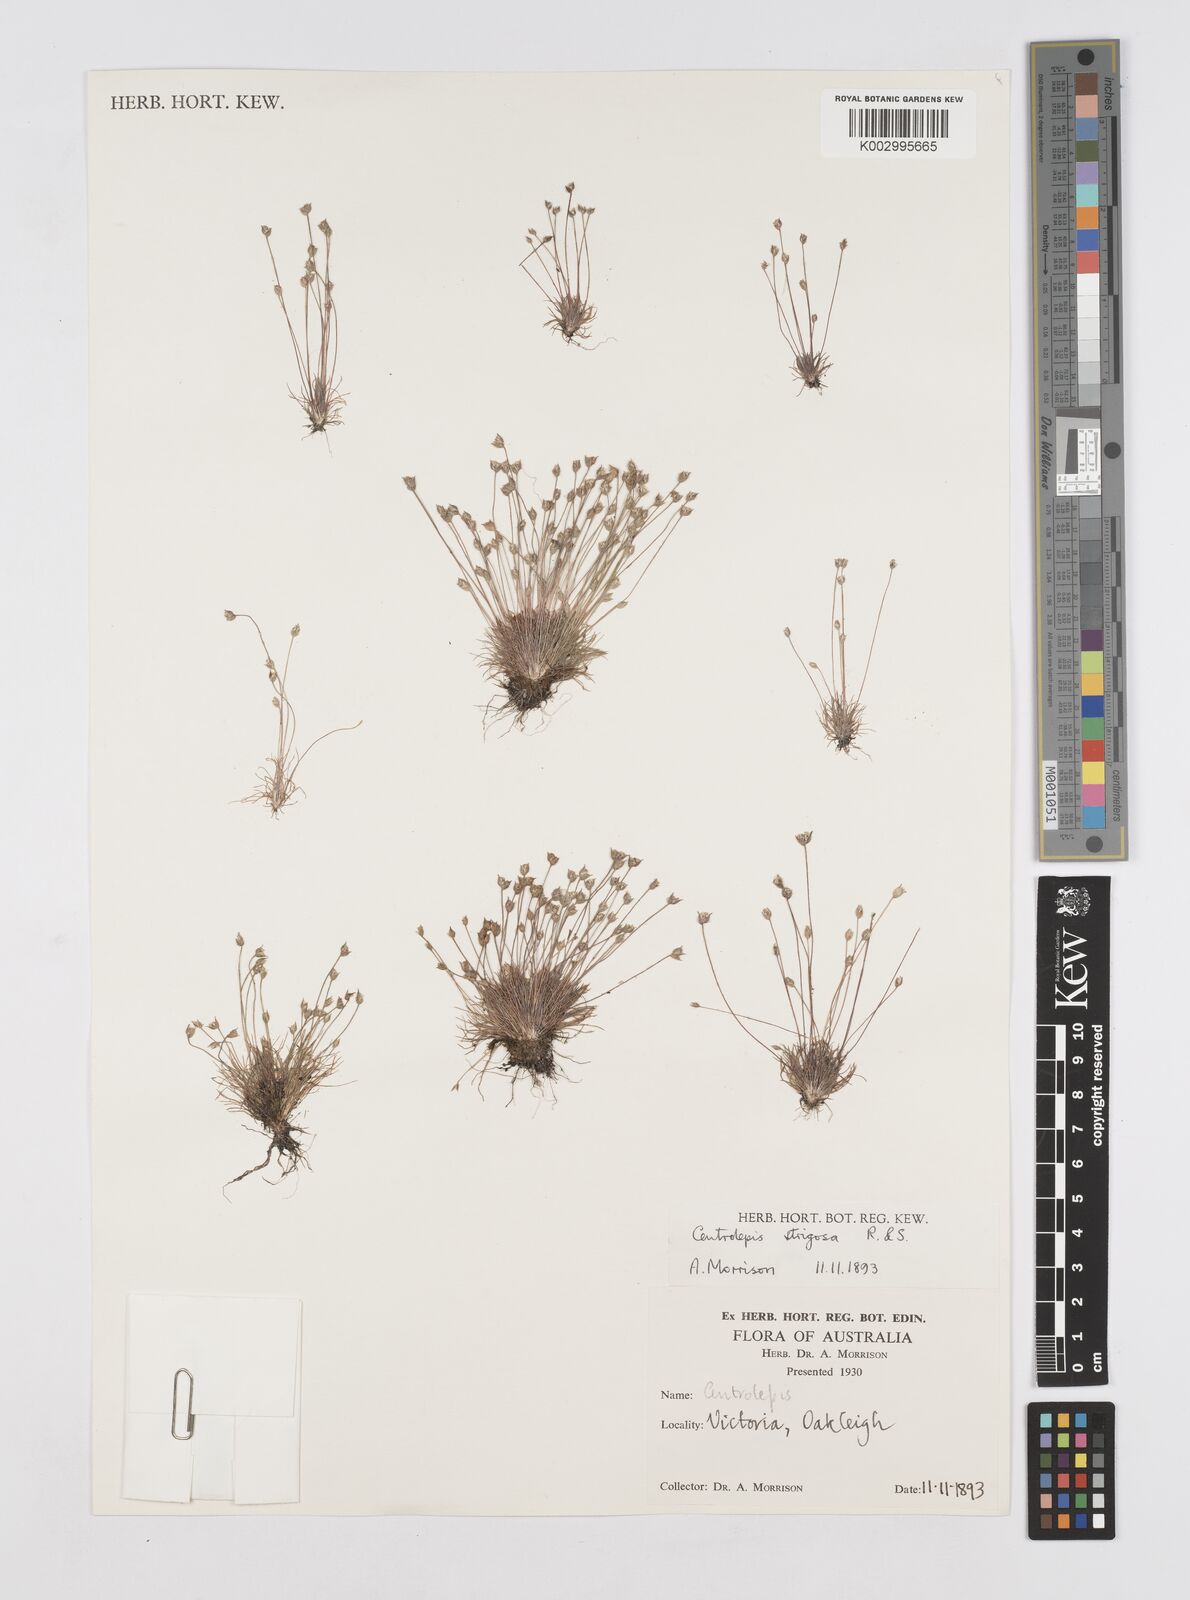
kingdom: Plantae
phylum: Tracheophyta
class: Liliopsida
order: Poales
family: Restionaceae
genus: Centrolepis
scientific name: Centrolepis strigosa
